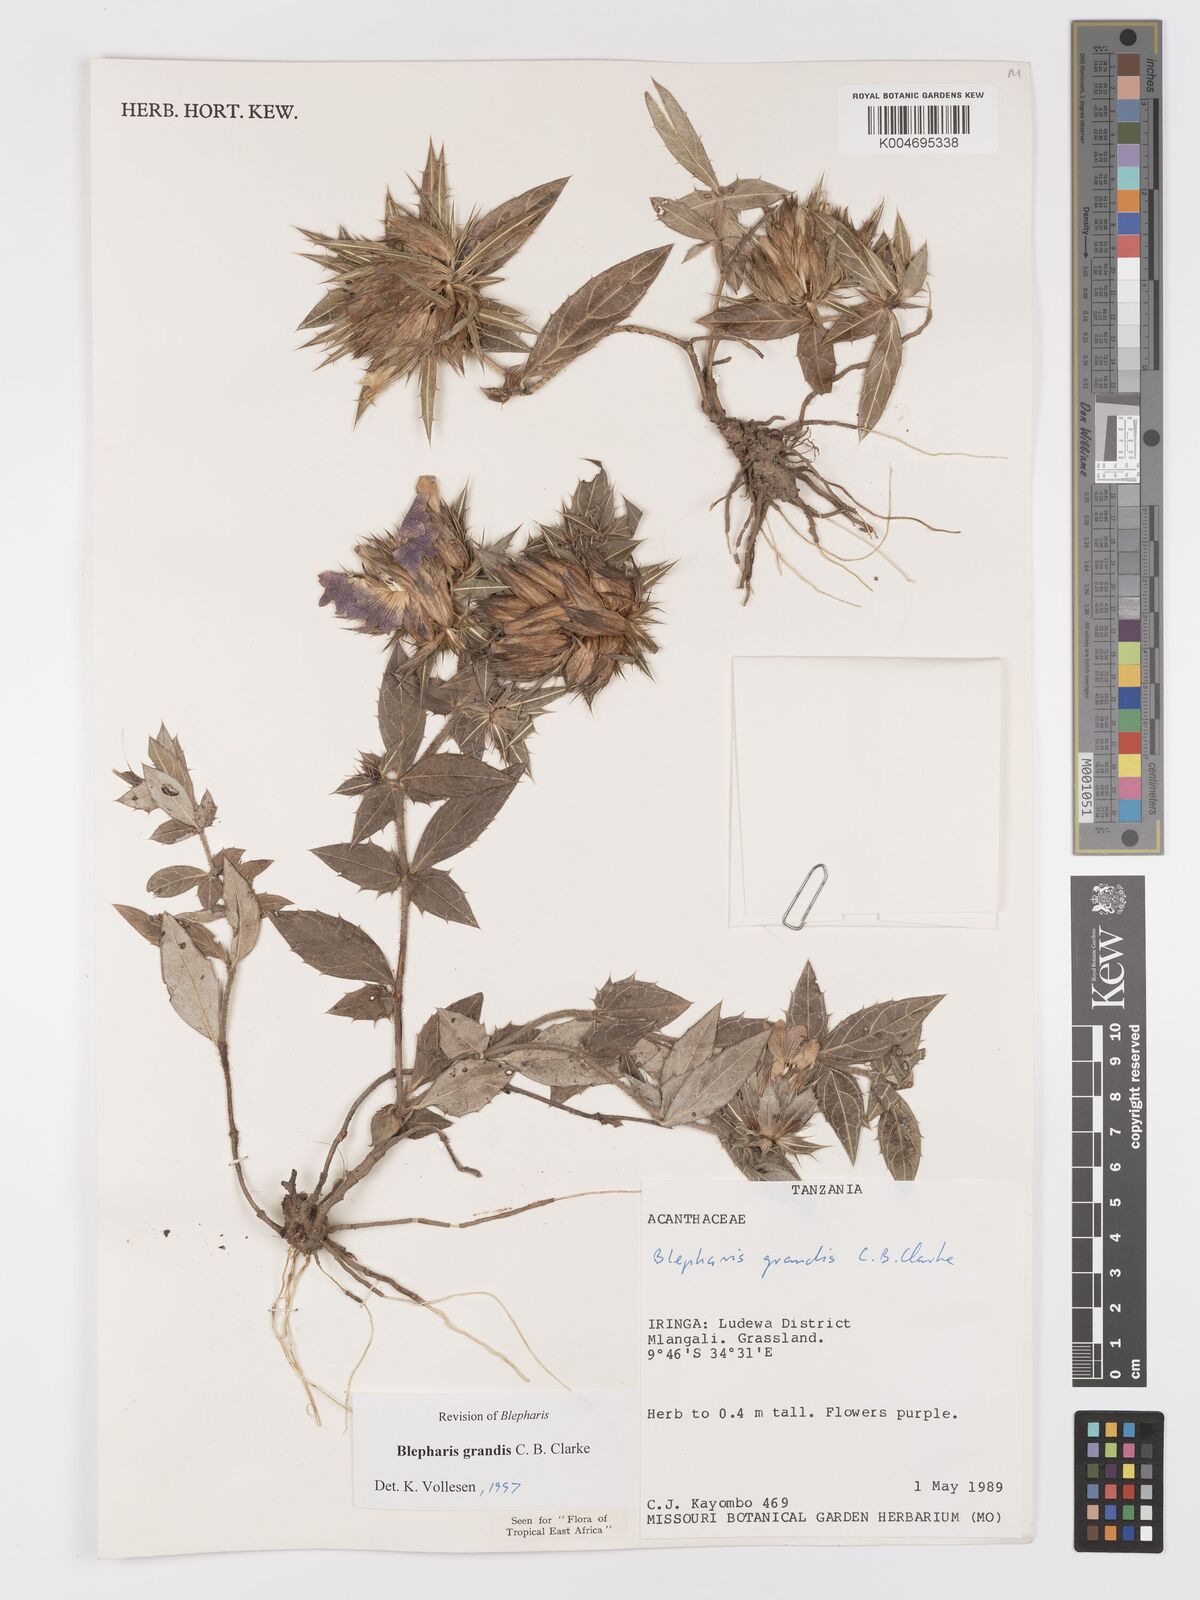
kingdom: Plantae
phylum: Tracheophyta
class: Magnoliopsida
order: Lamiales
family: Acanthaceae
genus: Blepharis
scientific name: Blepharis grandis
